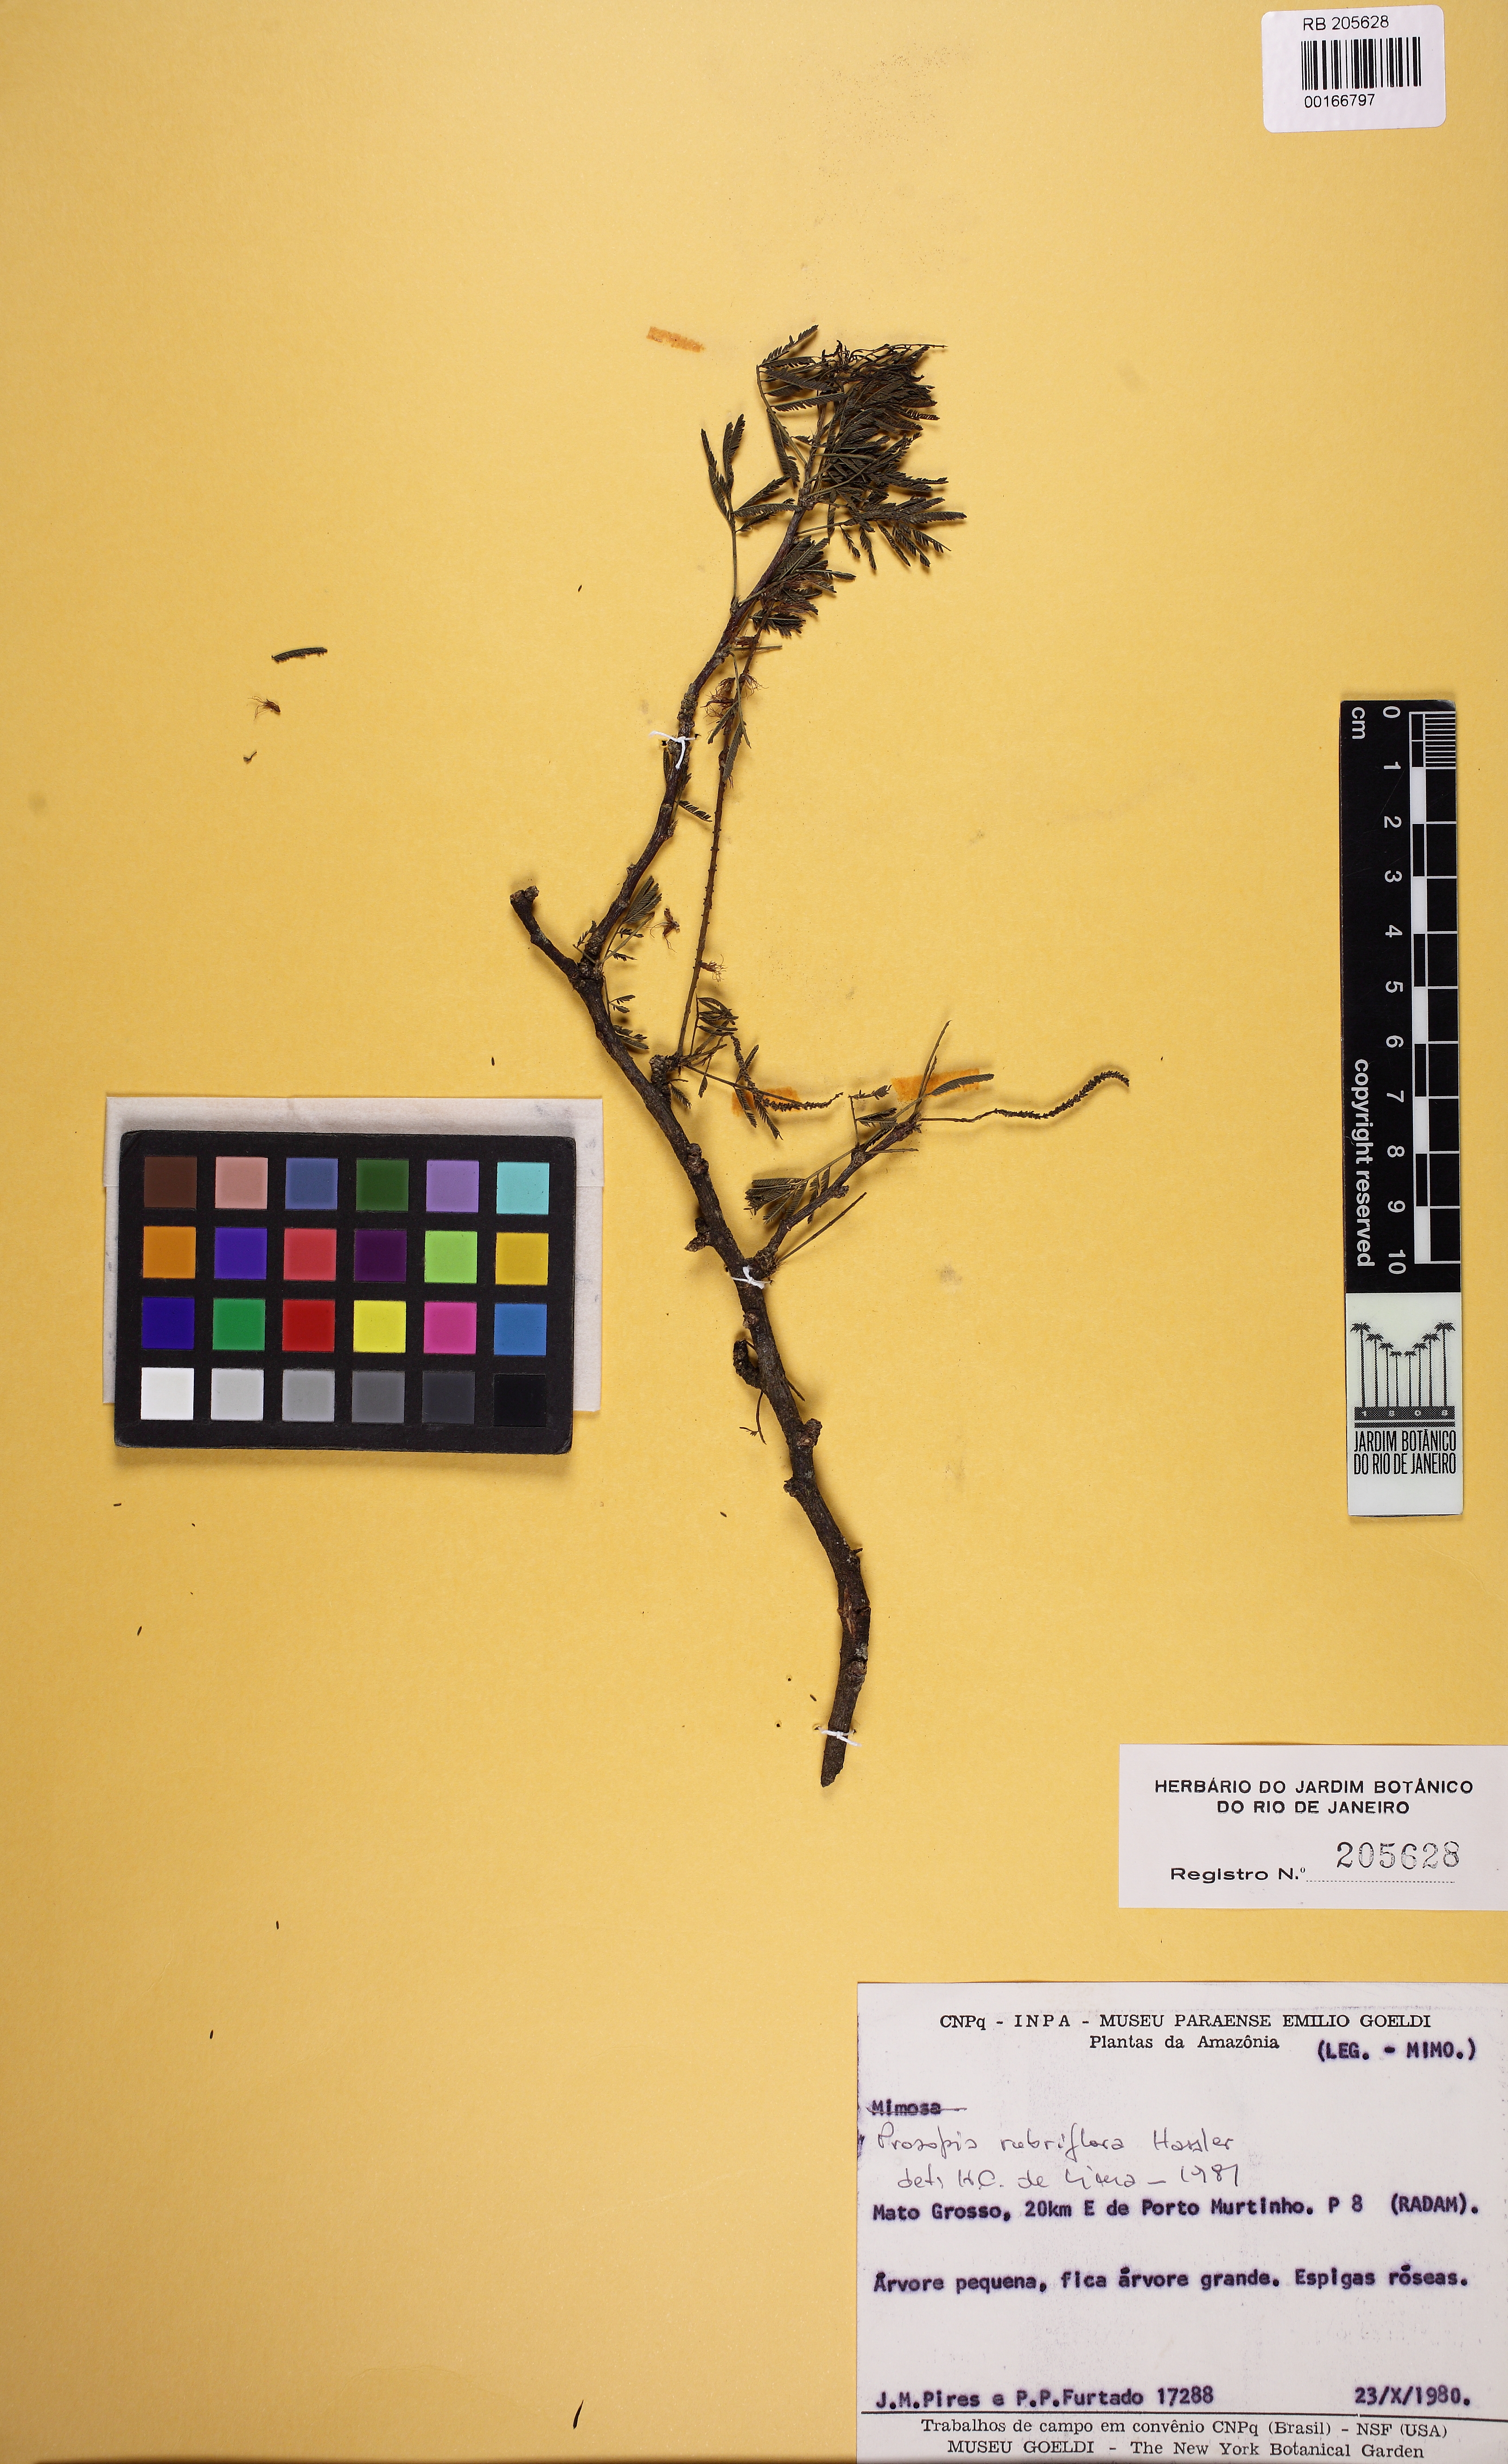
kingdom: Plantae
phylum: Tracheophyta
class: Magnoliopsida
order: Fabales
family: Fabaceae
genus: Prosopis
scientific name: Prosopis rubriflora
